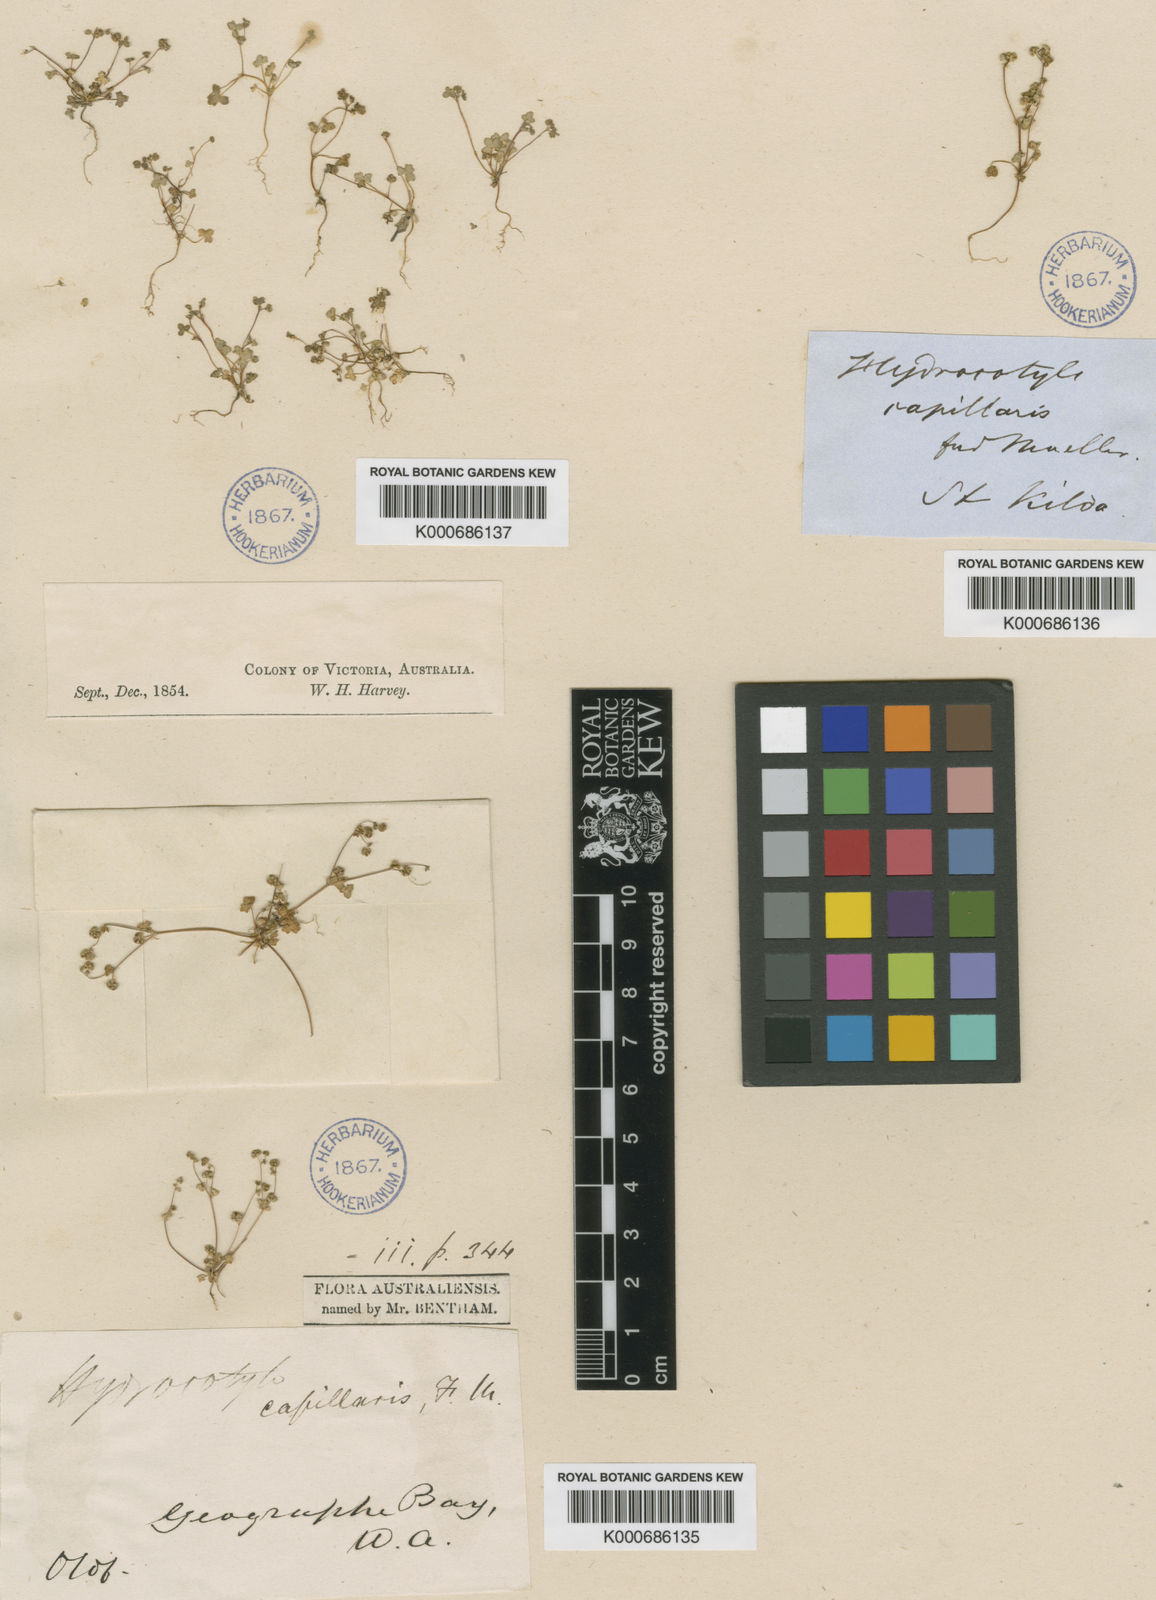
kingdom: Plantae
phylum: Tracheophyta
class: Magnoliopsida
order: Apiales
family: Araliaceae
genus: Hydrocotyle
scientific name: Hydrocotyle capillaris
